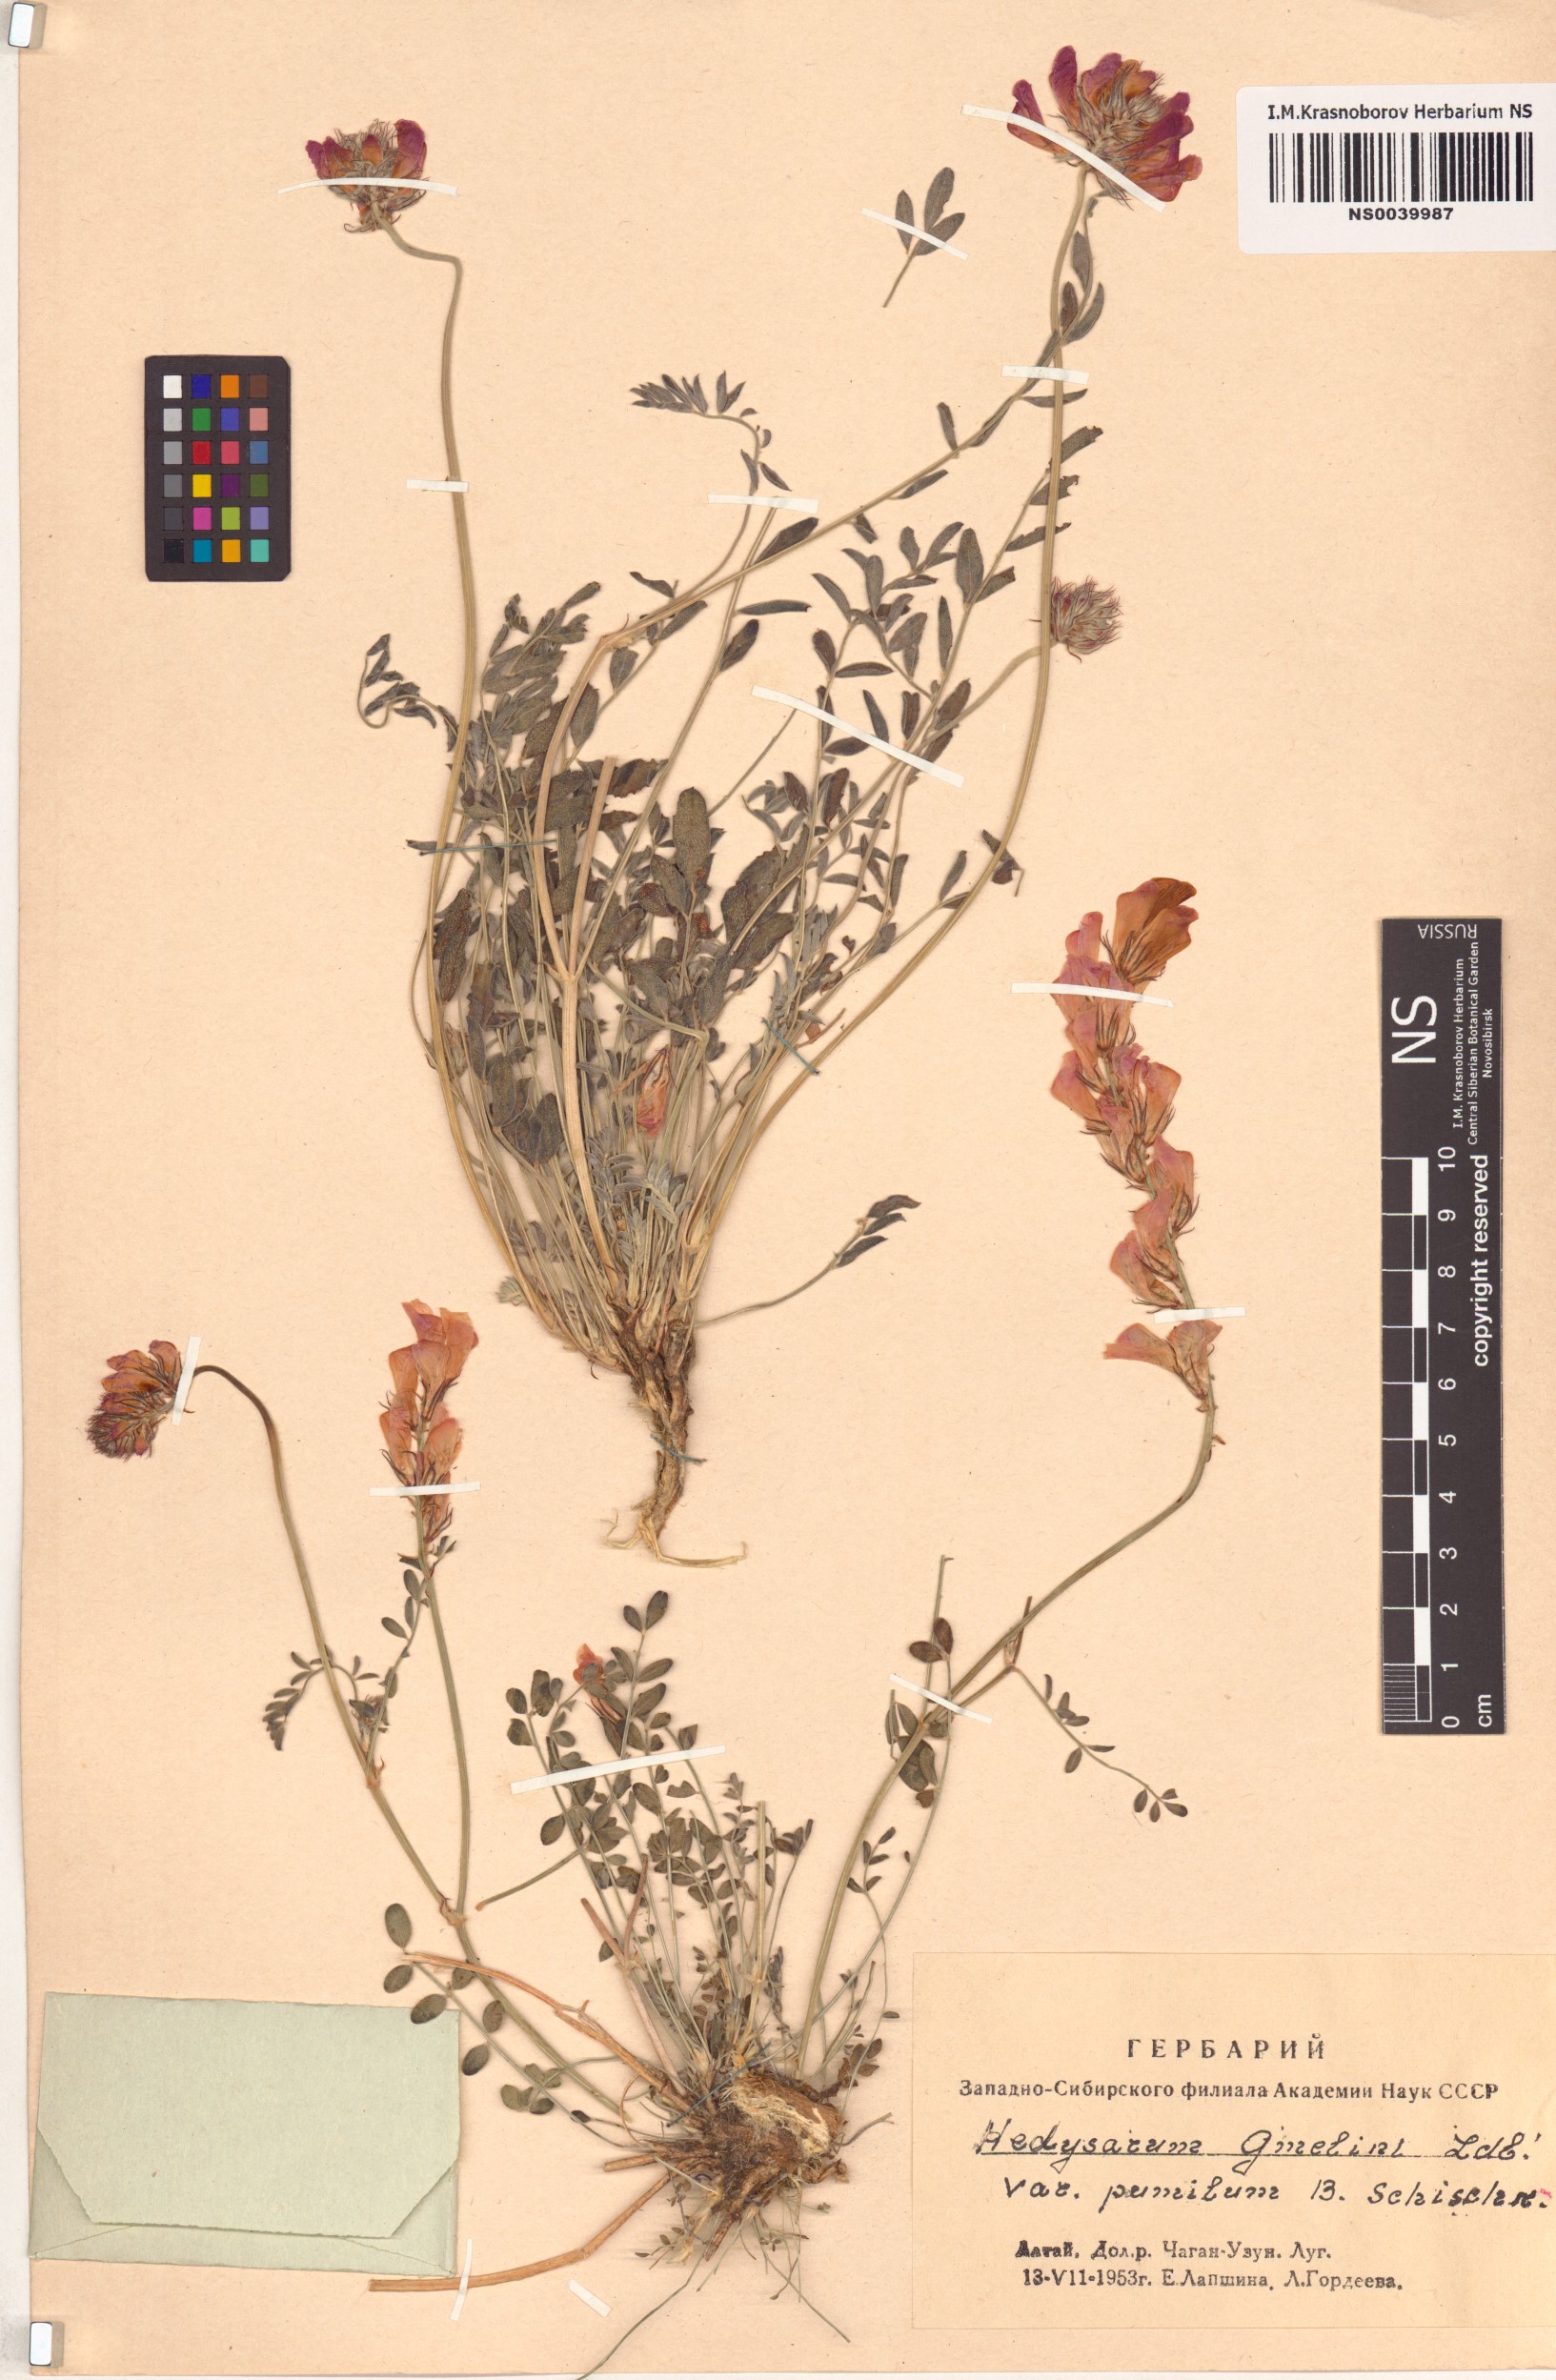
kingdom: Plantae
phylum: Tracheophyta
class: Magnoliopsida
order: Fabales
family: Fabaceae
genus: Hedysarum
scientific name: Hedysarum gmelinii
